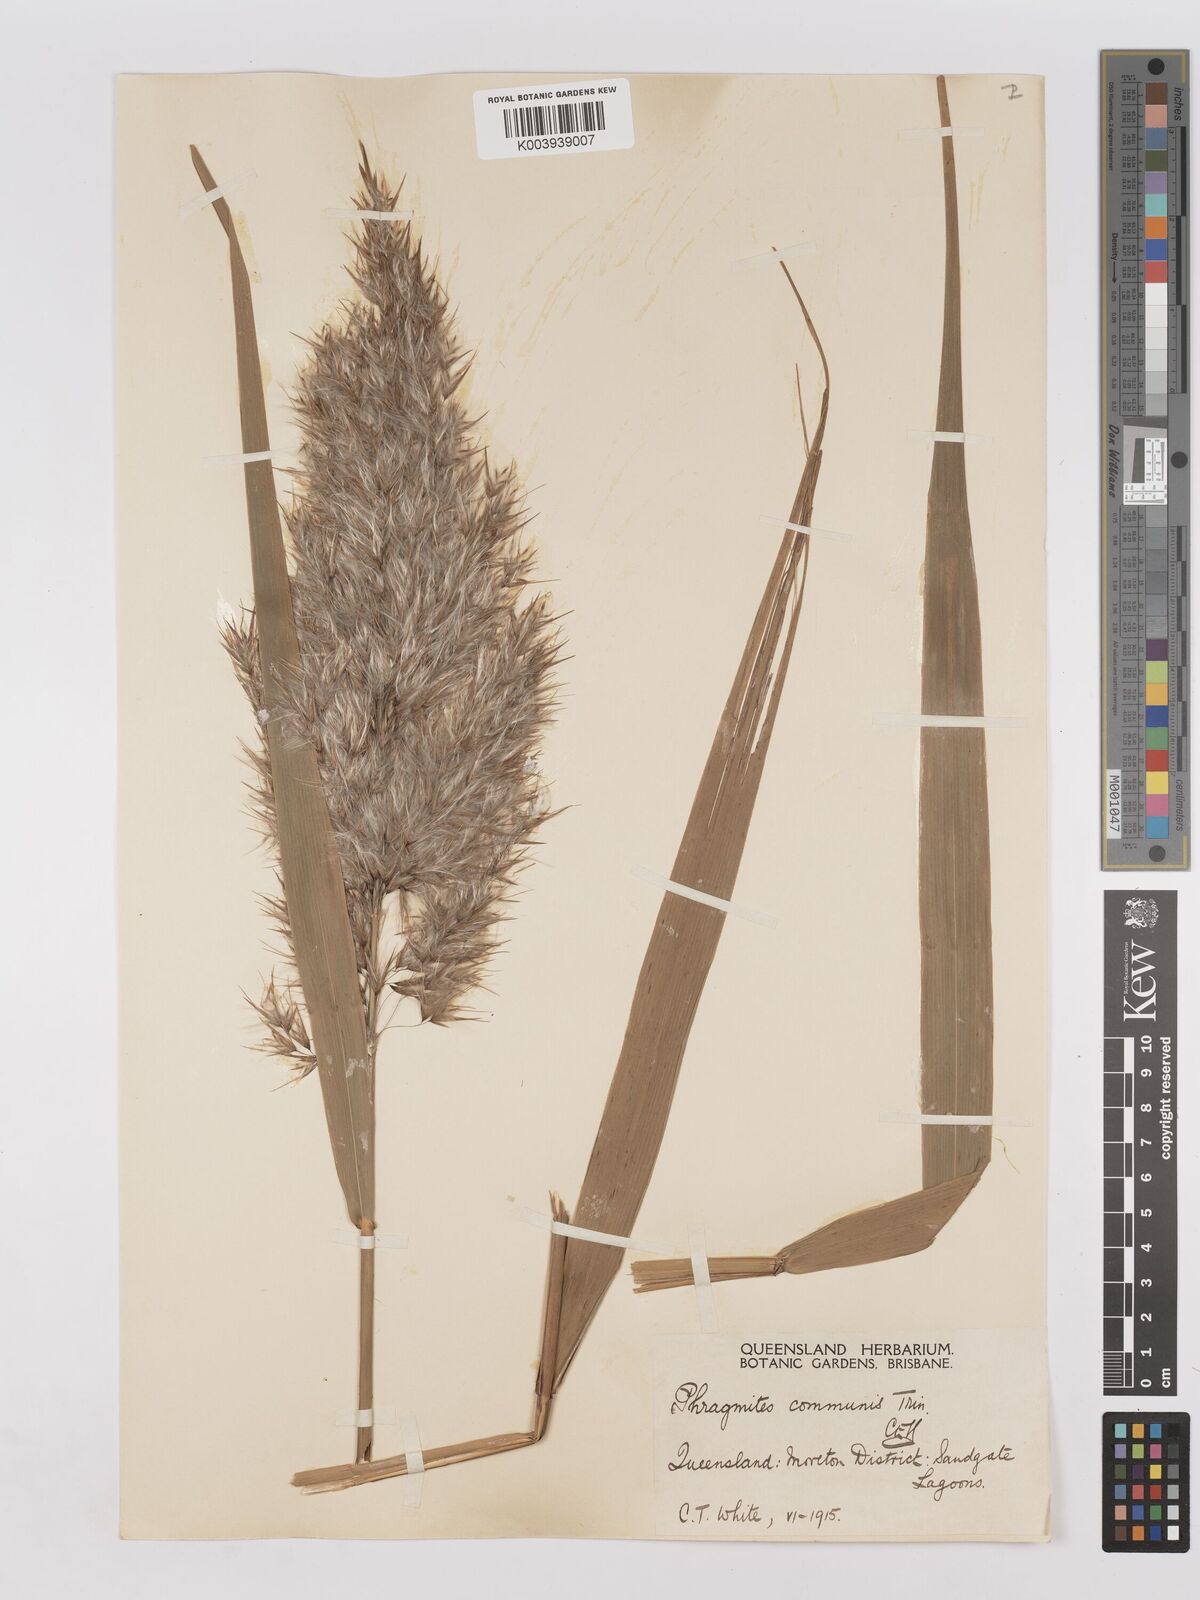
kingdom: Plantae
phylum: Tracheophyta
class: Liliopsida
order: Poales
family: Poaceae
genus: Phragmites
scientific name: Phragmites australis
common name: Common reed
